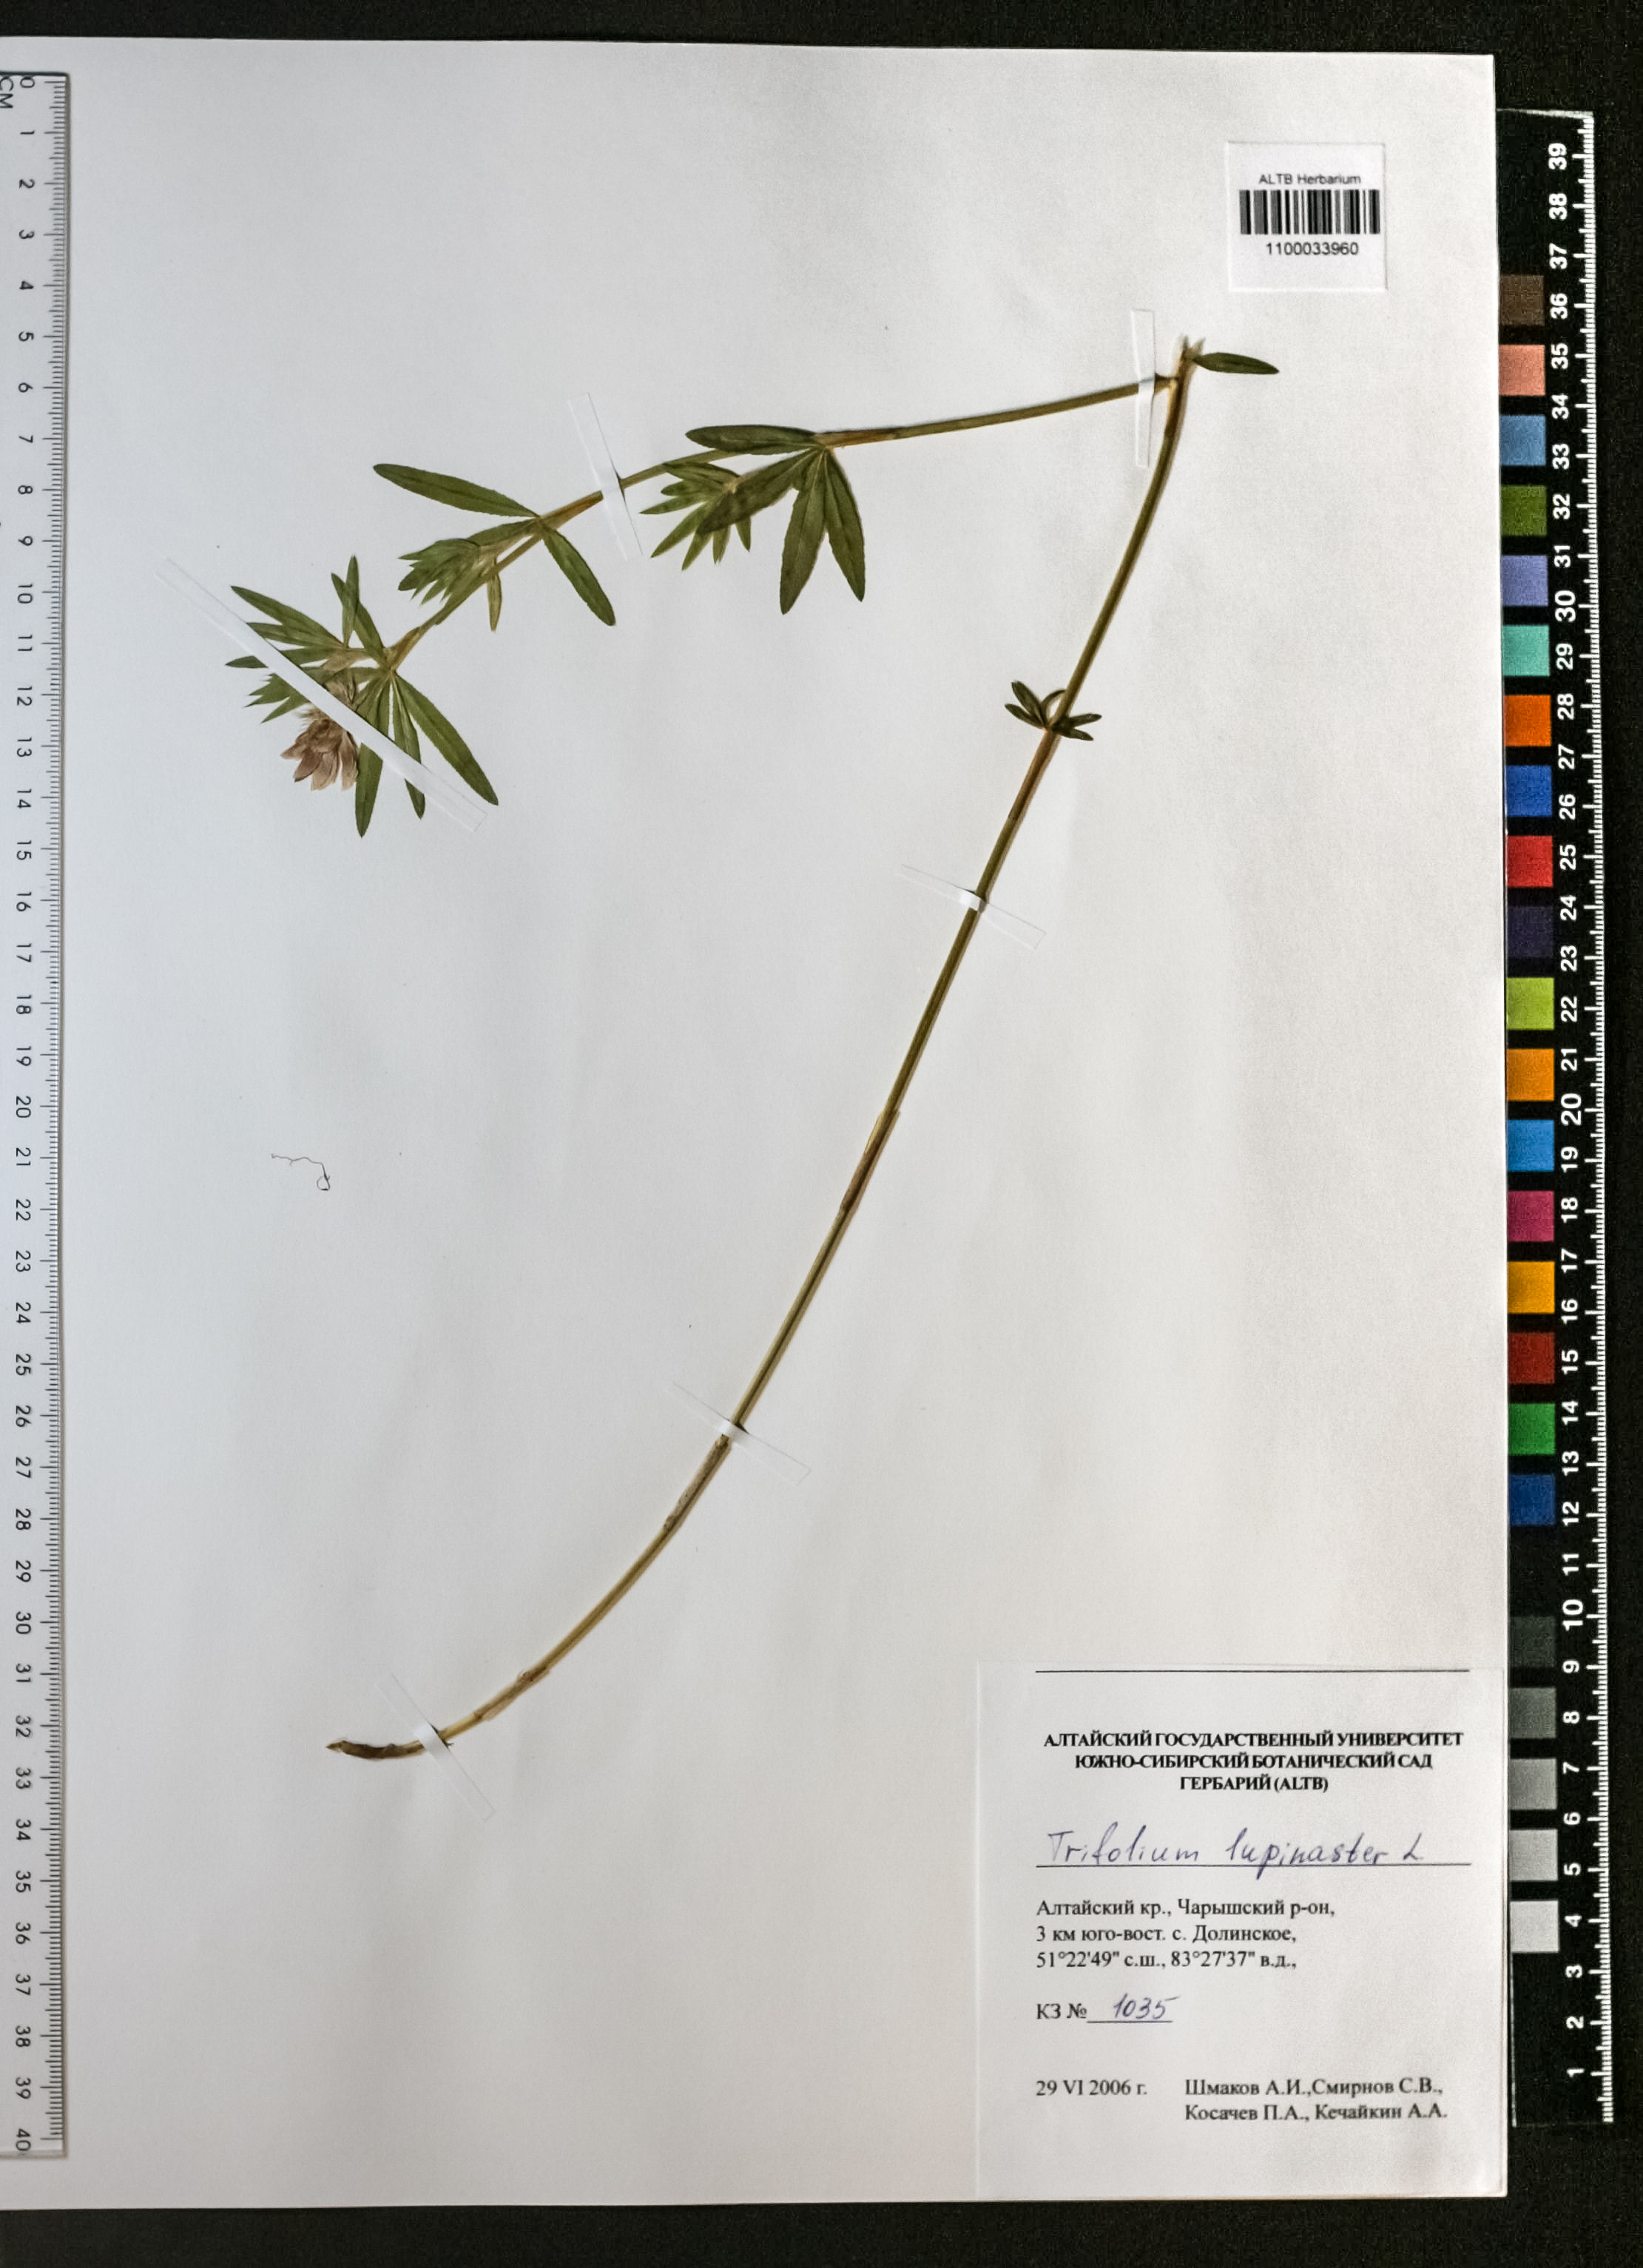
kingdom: Plantae
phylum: Tracheophyta
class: Magnoliopsida
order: Fabales
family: Fabaceae
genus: Trifolium
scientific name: Trifolium lupinaster
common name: Lupine clover
